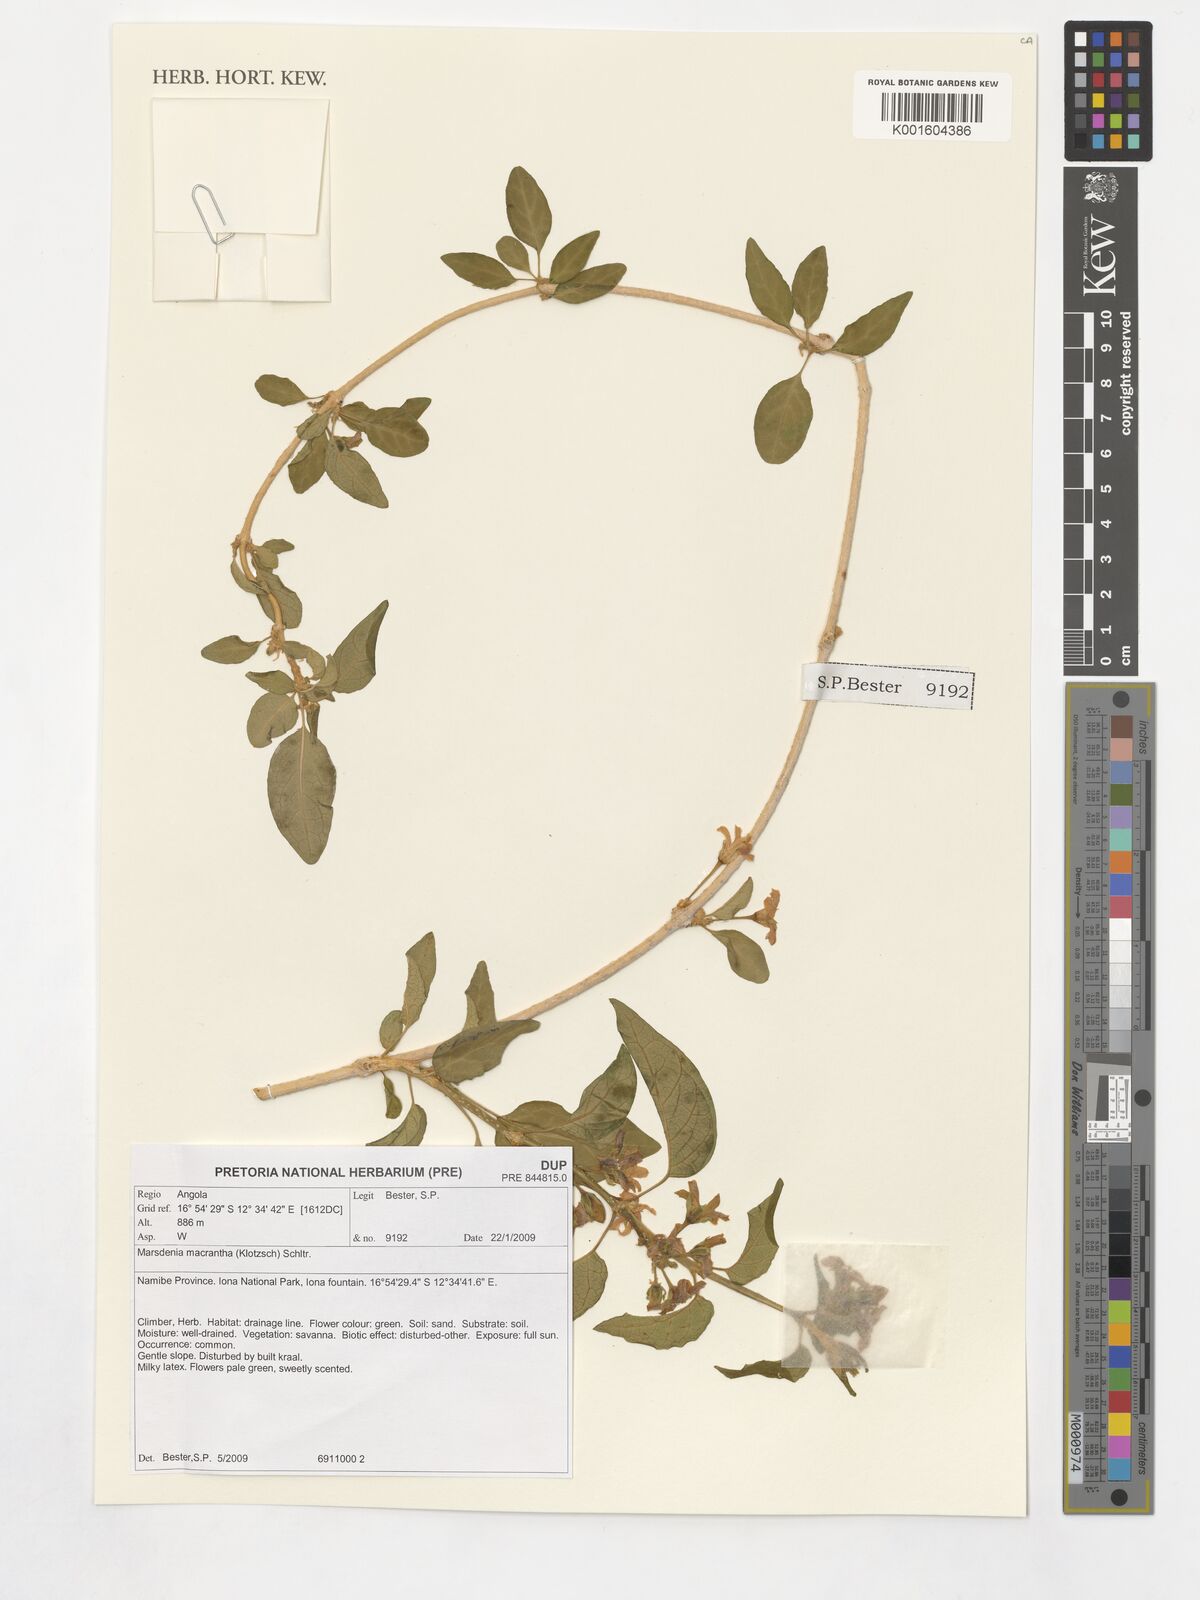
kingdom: Plantae
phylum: Tracheophyta
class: Magnoliopsida
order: Gentianales
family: Apocynaceae
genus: Stephanotis
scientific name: Stephanotis macrantha
